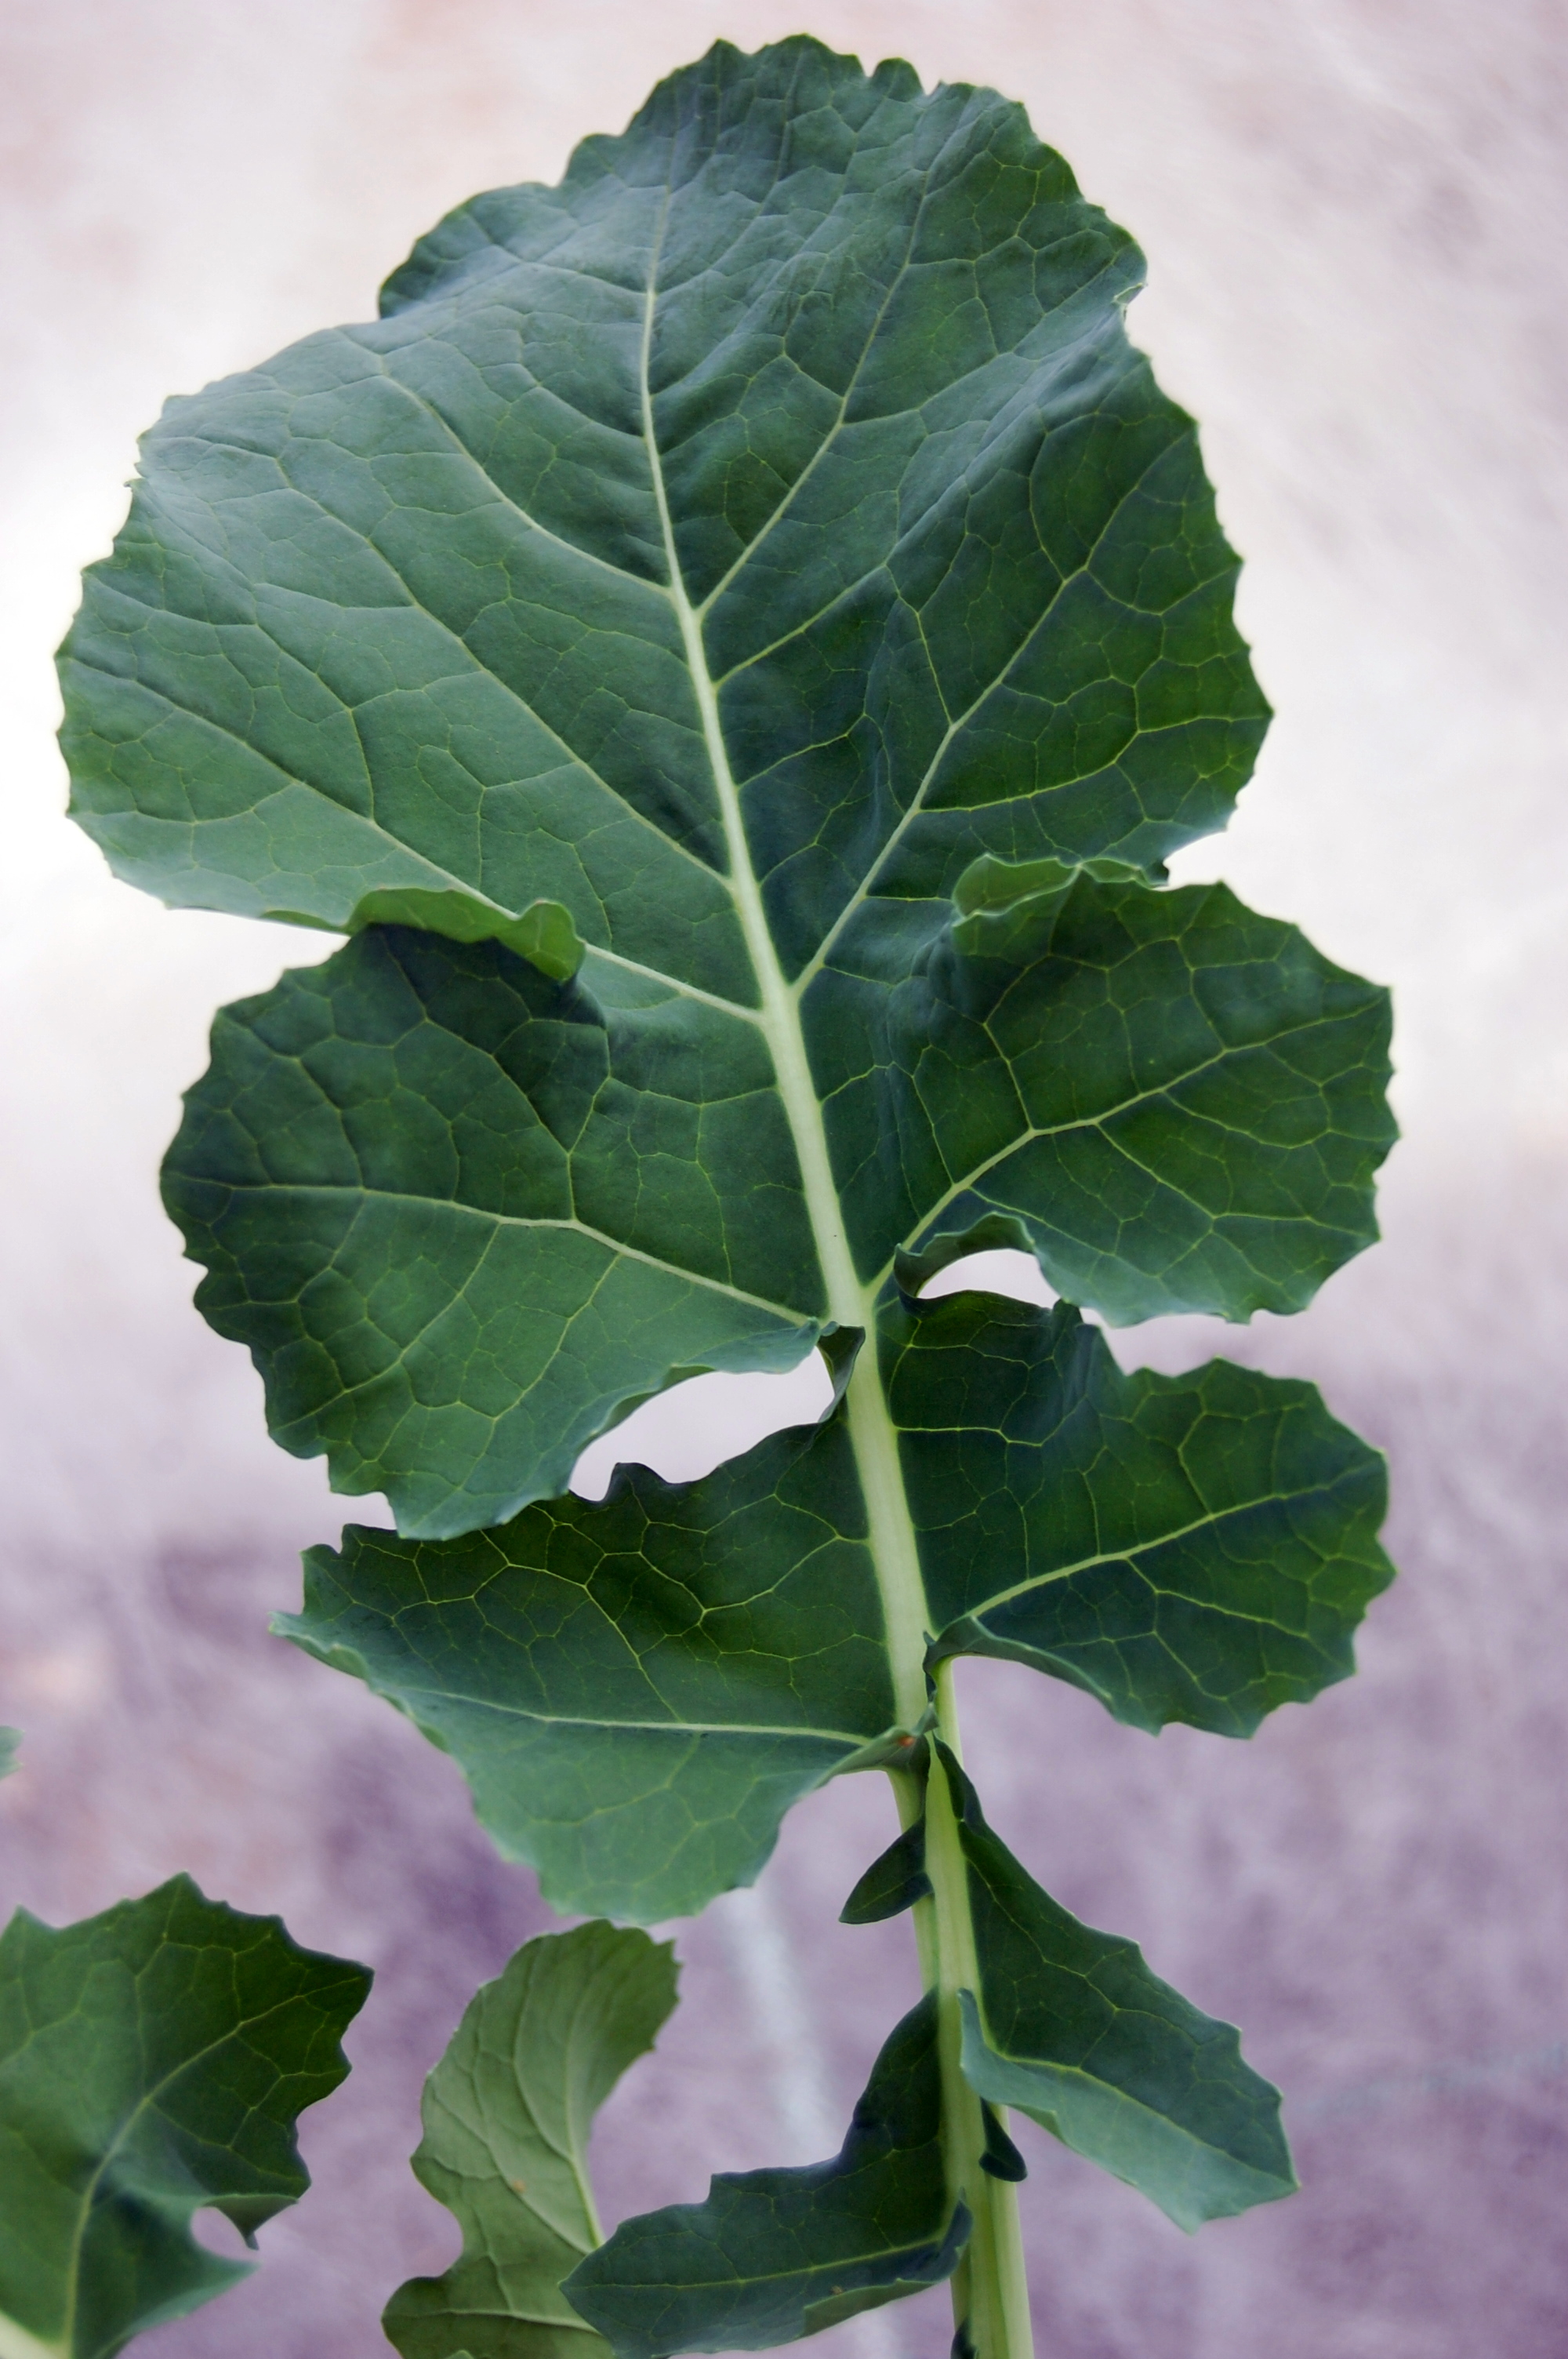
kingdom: Plantae
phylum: Tracheophyta
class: Magnoliopsida
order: Brassicales
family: Brassicaceae
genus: Brassica
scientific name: Brassica napus
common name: Rape
